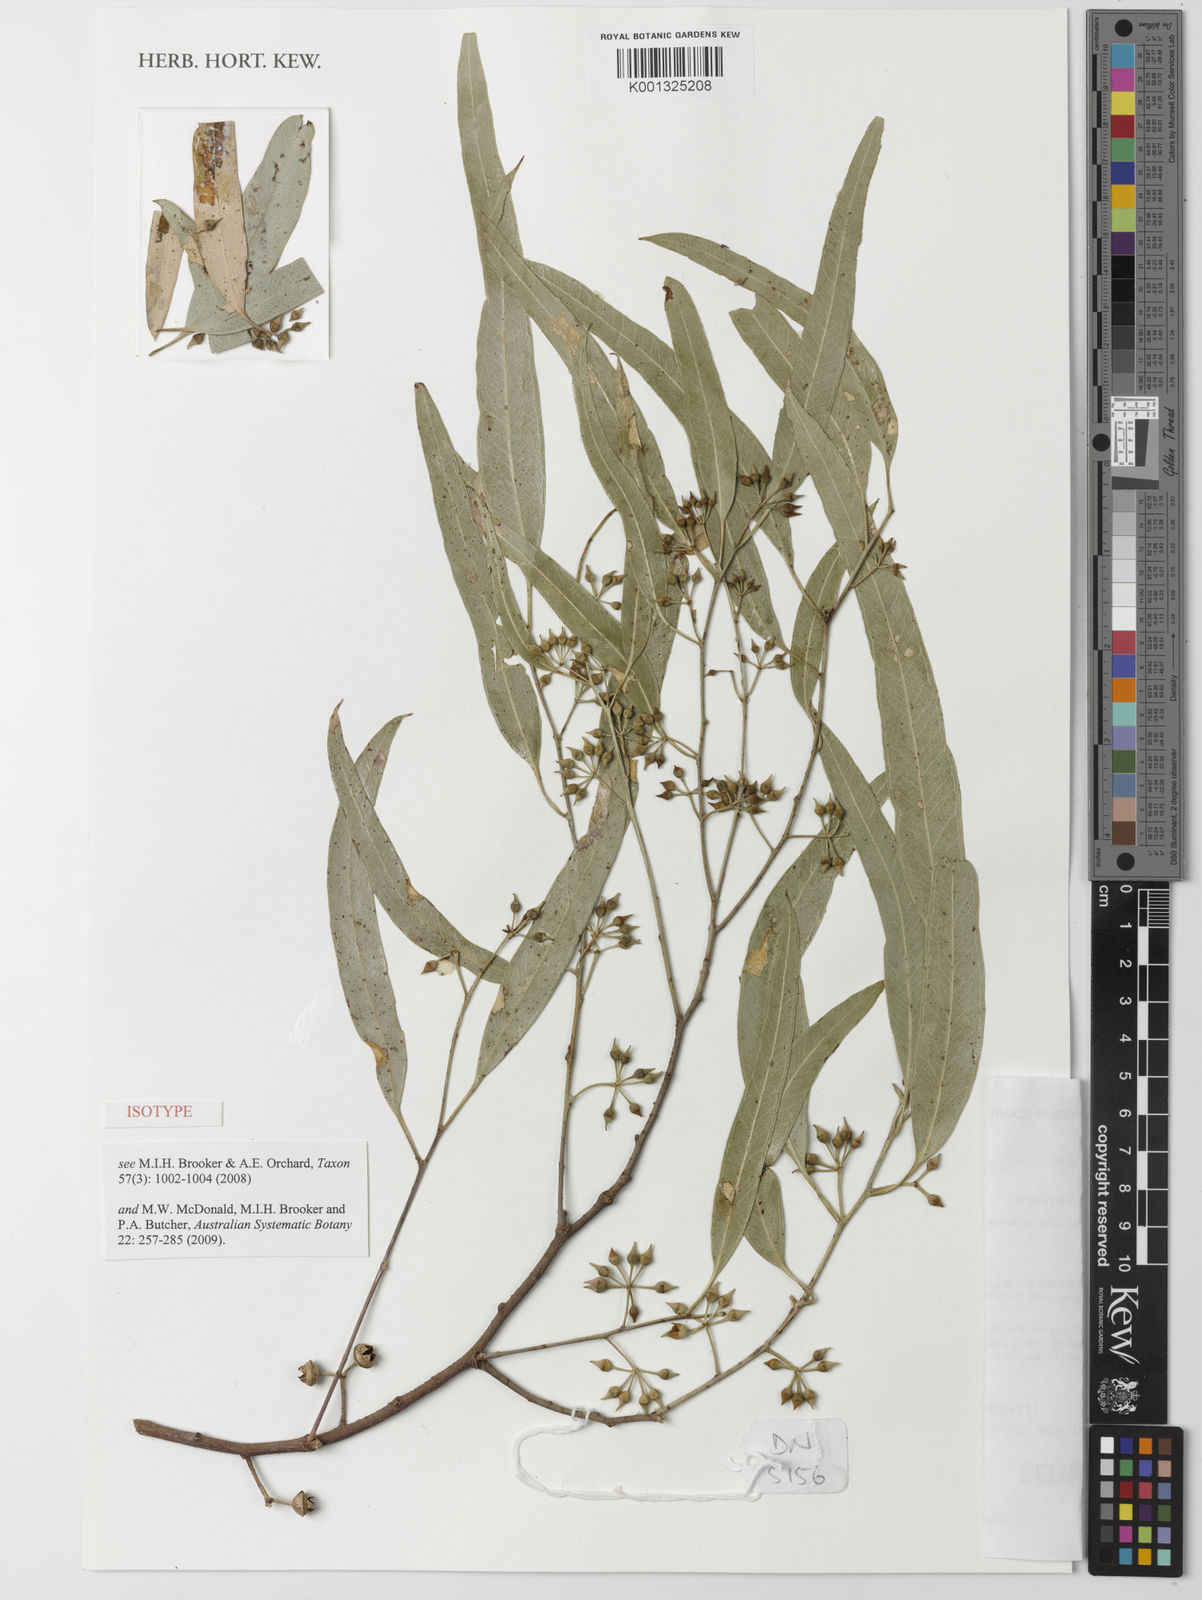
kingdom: Plantae
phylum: Tracheophyta
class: Magnoliopsida
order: Myrtales
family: Myrtaceae
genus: Eucalyptus
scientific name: Eucalyptus camaldulensis
